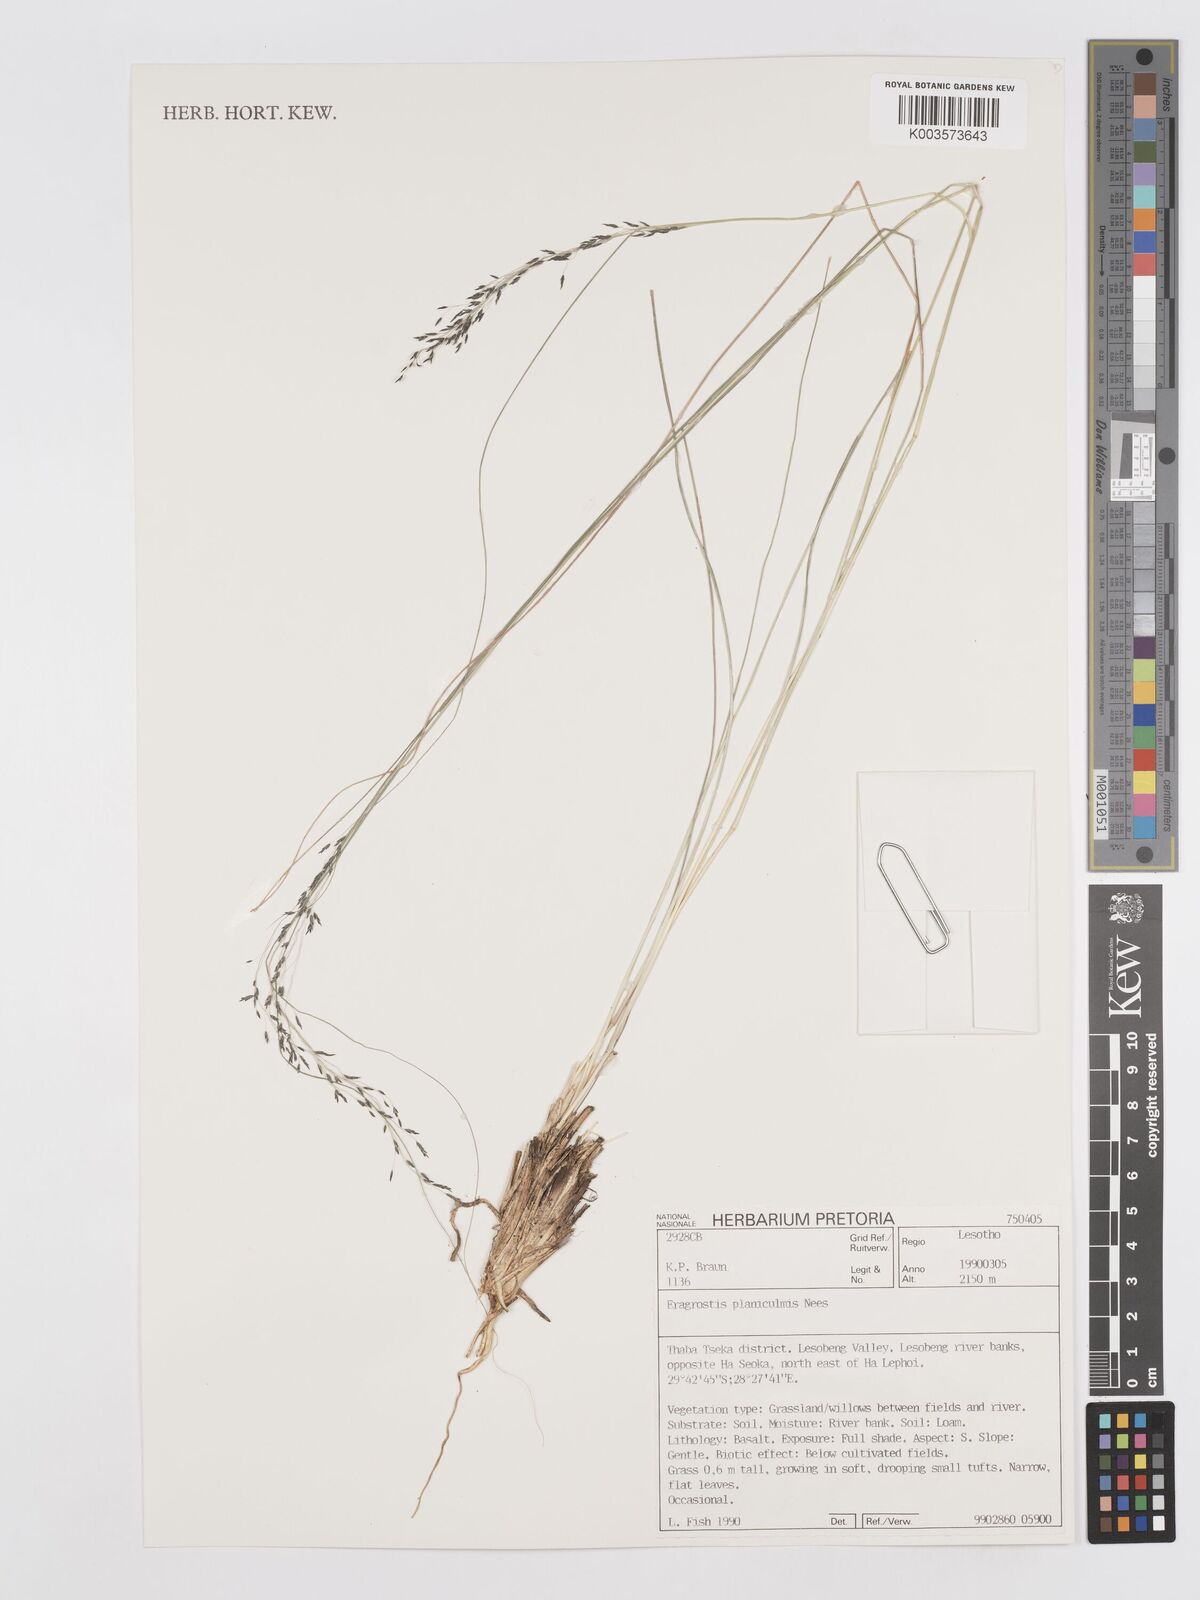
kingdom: Plantae
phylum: Tracheophyta
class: Liliopsida
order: Poales
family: Poaceae
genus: Eragrostis
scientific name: Eragrostis planiculmis
